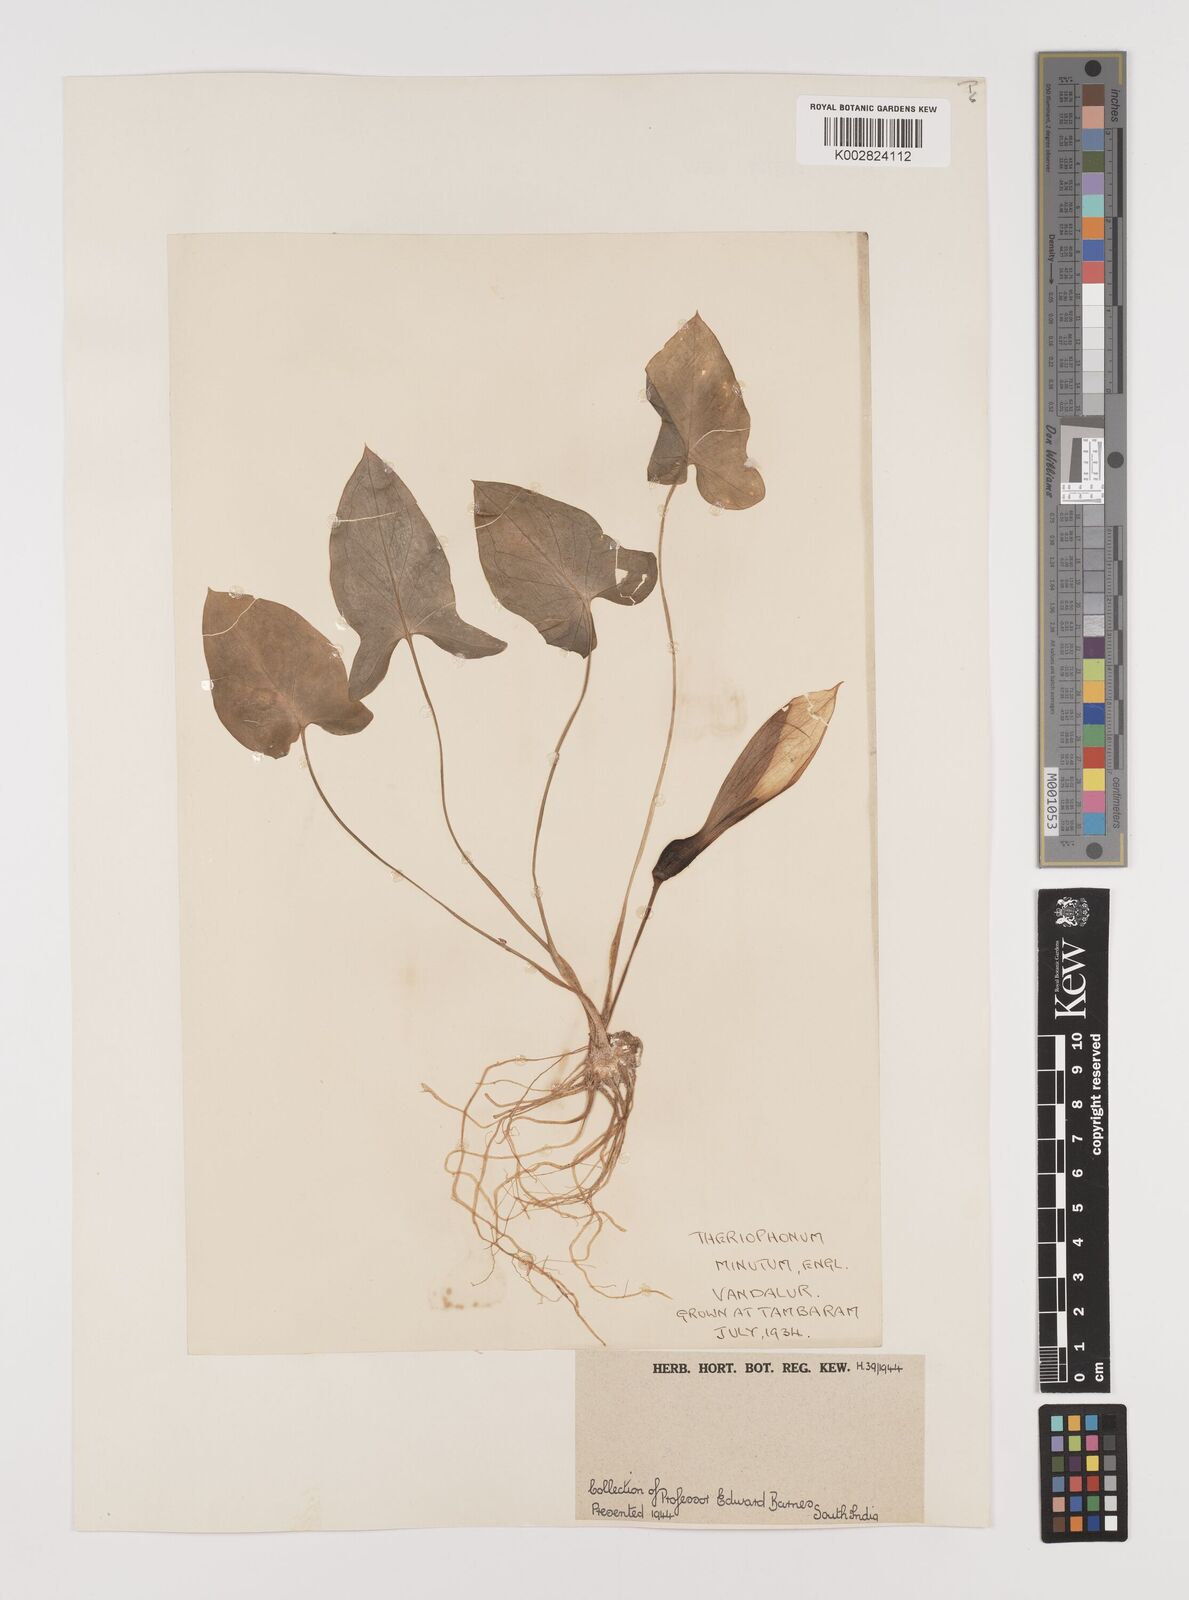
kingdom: Plantae
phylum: Tracheophyta
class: Liliopsida
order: Alismatales
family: Araceae
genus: Theriophonum
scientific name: Theriophonum minutum
